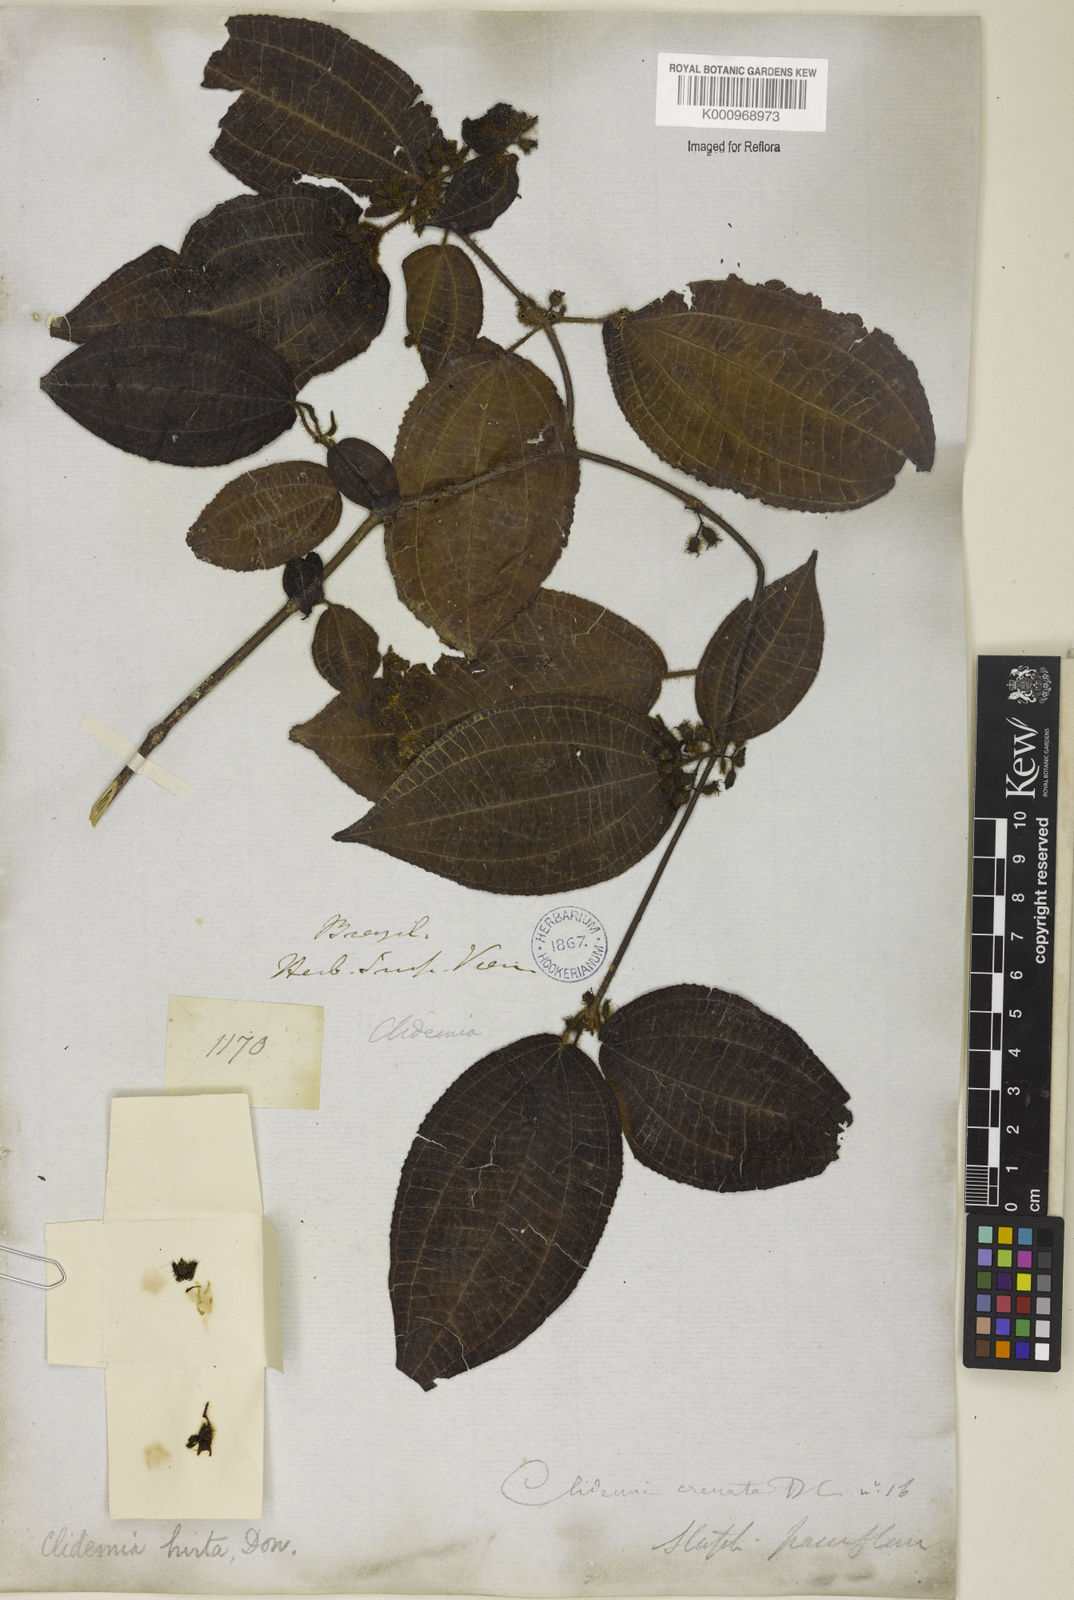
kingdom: Plantae
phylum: Tracheophyta
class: Magnoliopsida
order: Myrtales
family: Melastomataceae
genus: Miconia
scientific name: Miconia crenata
